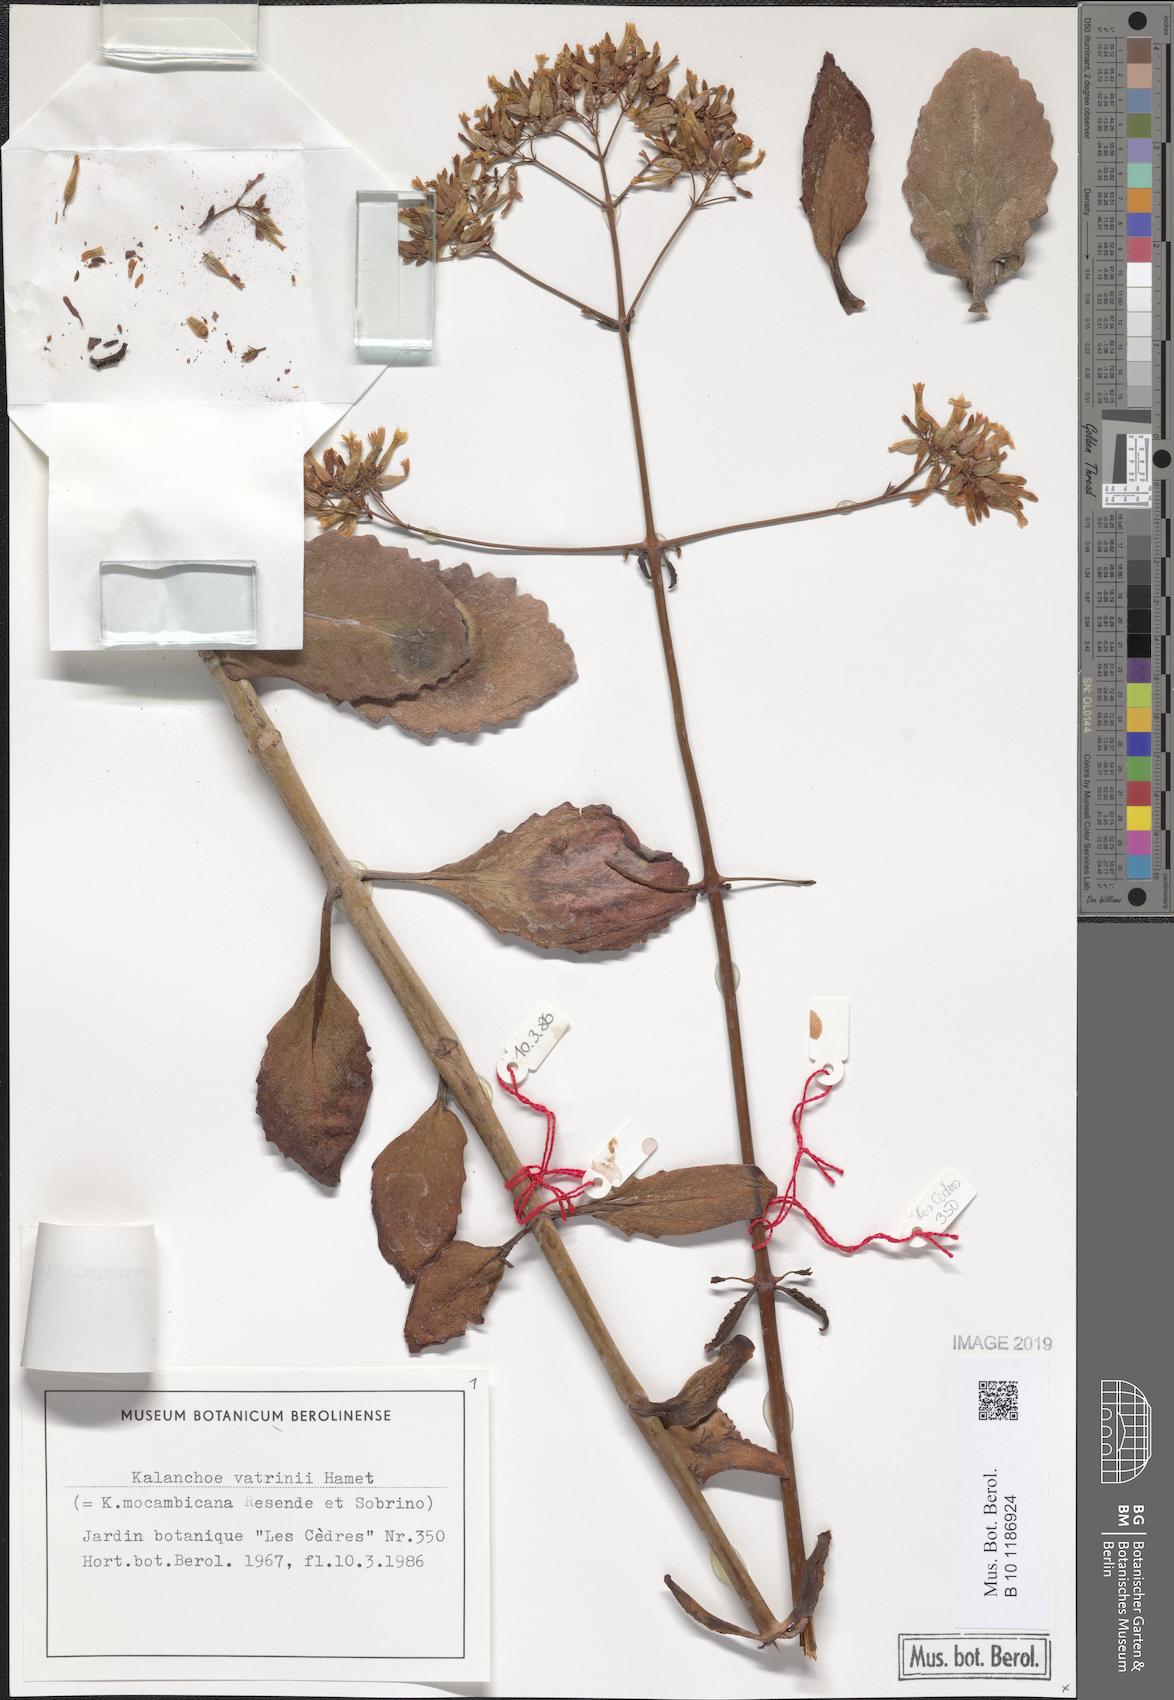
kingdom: Plantae
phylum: Tracheophyta
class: Magnoliopsida
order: Saxifragales
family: Crassulaceae
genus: Kalanchoe
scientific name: Kalanchoe sexangularis
